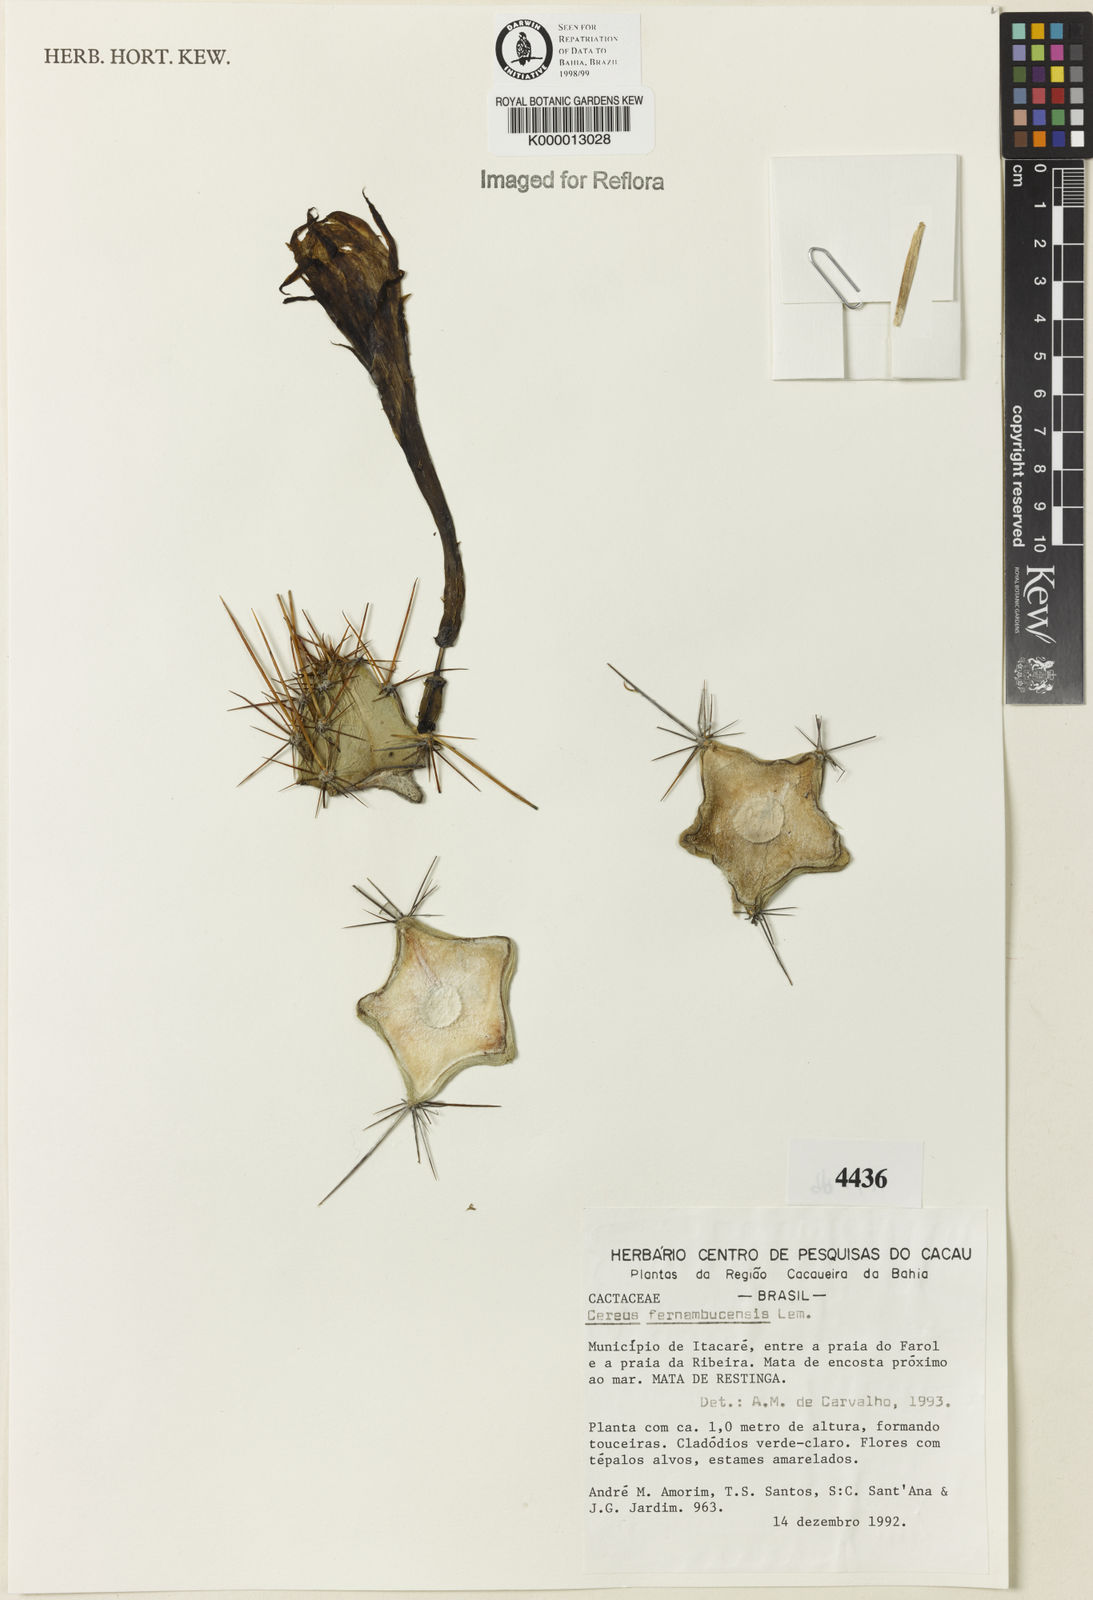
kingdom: Plantae
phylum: Tracheophyta
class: Magnoliopsida
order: Caryophyllales
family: Cactaceae
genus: Cereus
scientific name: Cereus fernambucensis
